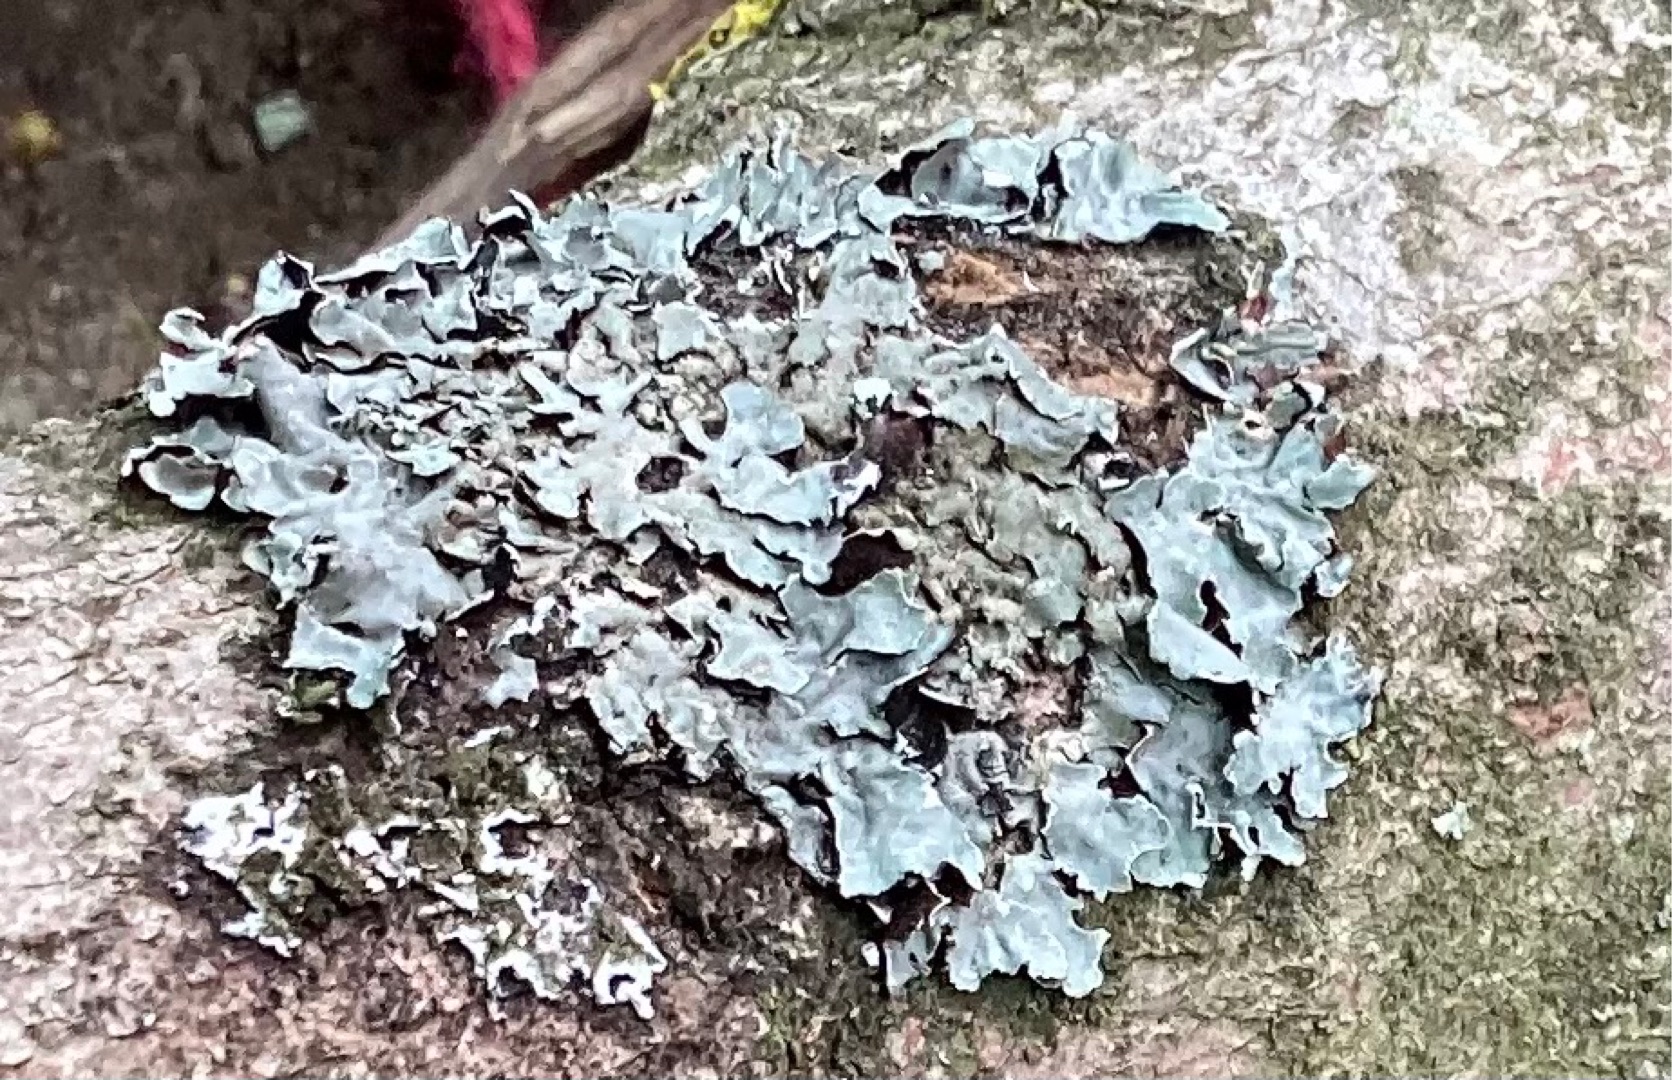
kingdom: Fungi
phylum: Ascomycota
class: Lecanoromycetes
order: Lecanorales
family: Parmeliaceae
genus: Parmelia
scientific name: Parmelia sulcata
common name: Rynket skållav
